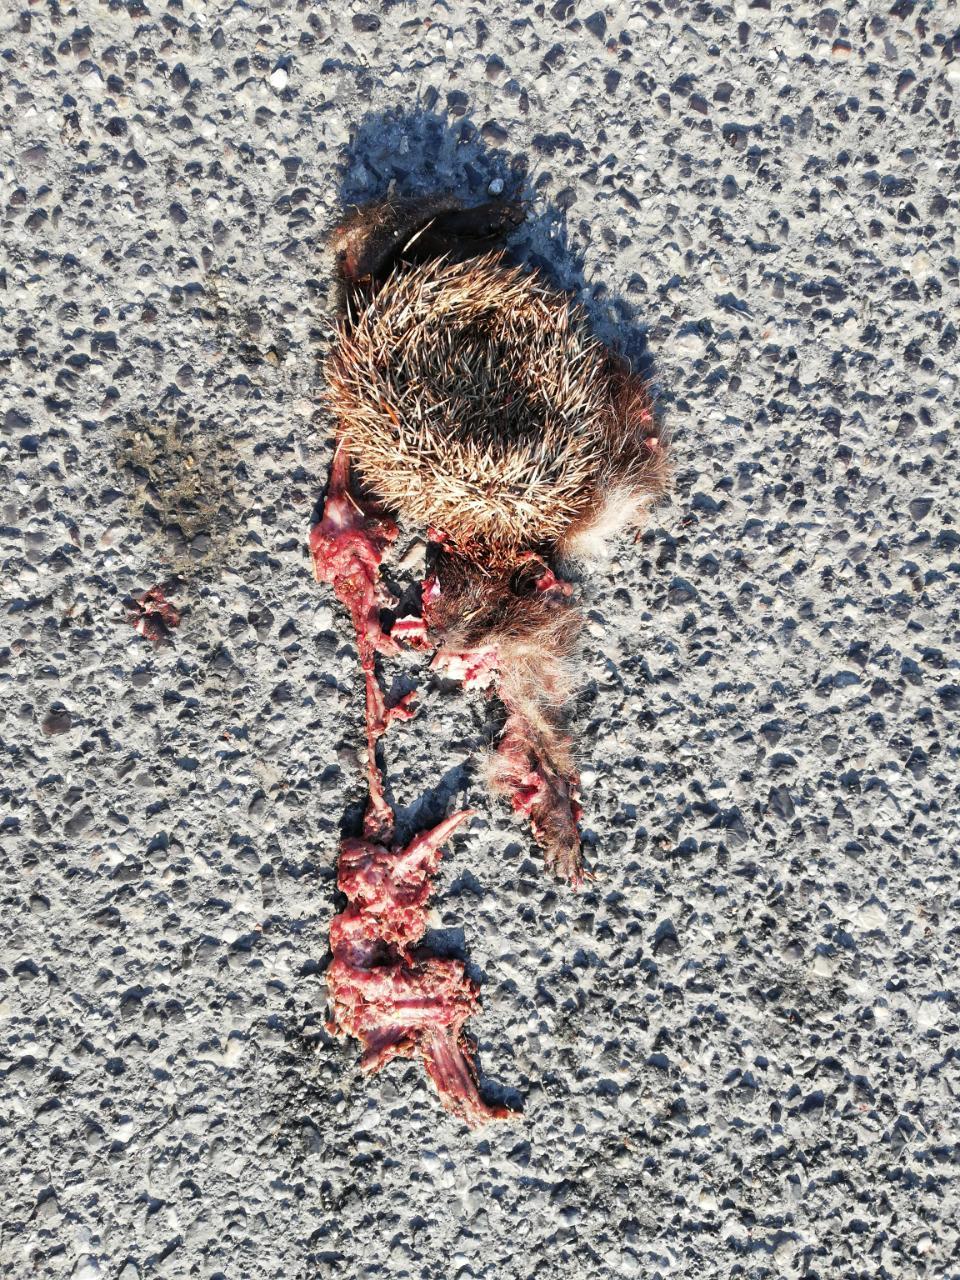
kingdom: Animalia
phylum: Chordata
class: Mammalia
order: Erinaceomorpha
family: Erinaceidae
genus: Erinaceus
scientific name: Erinaceus
